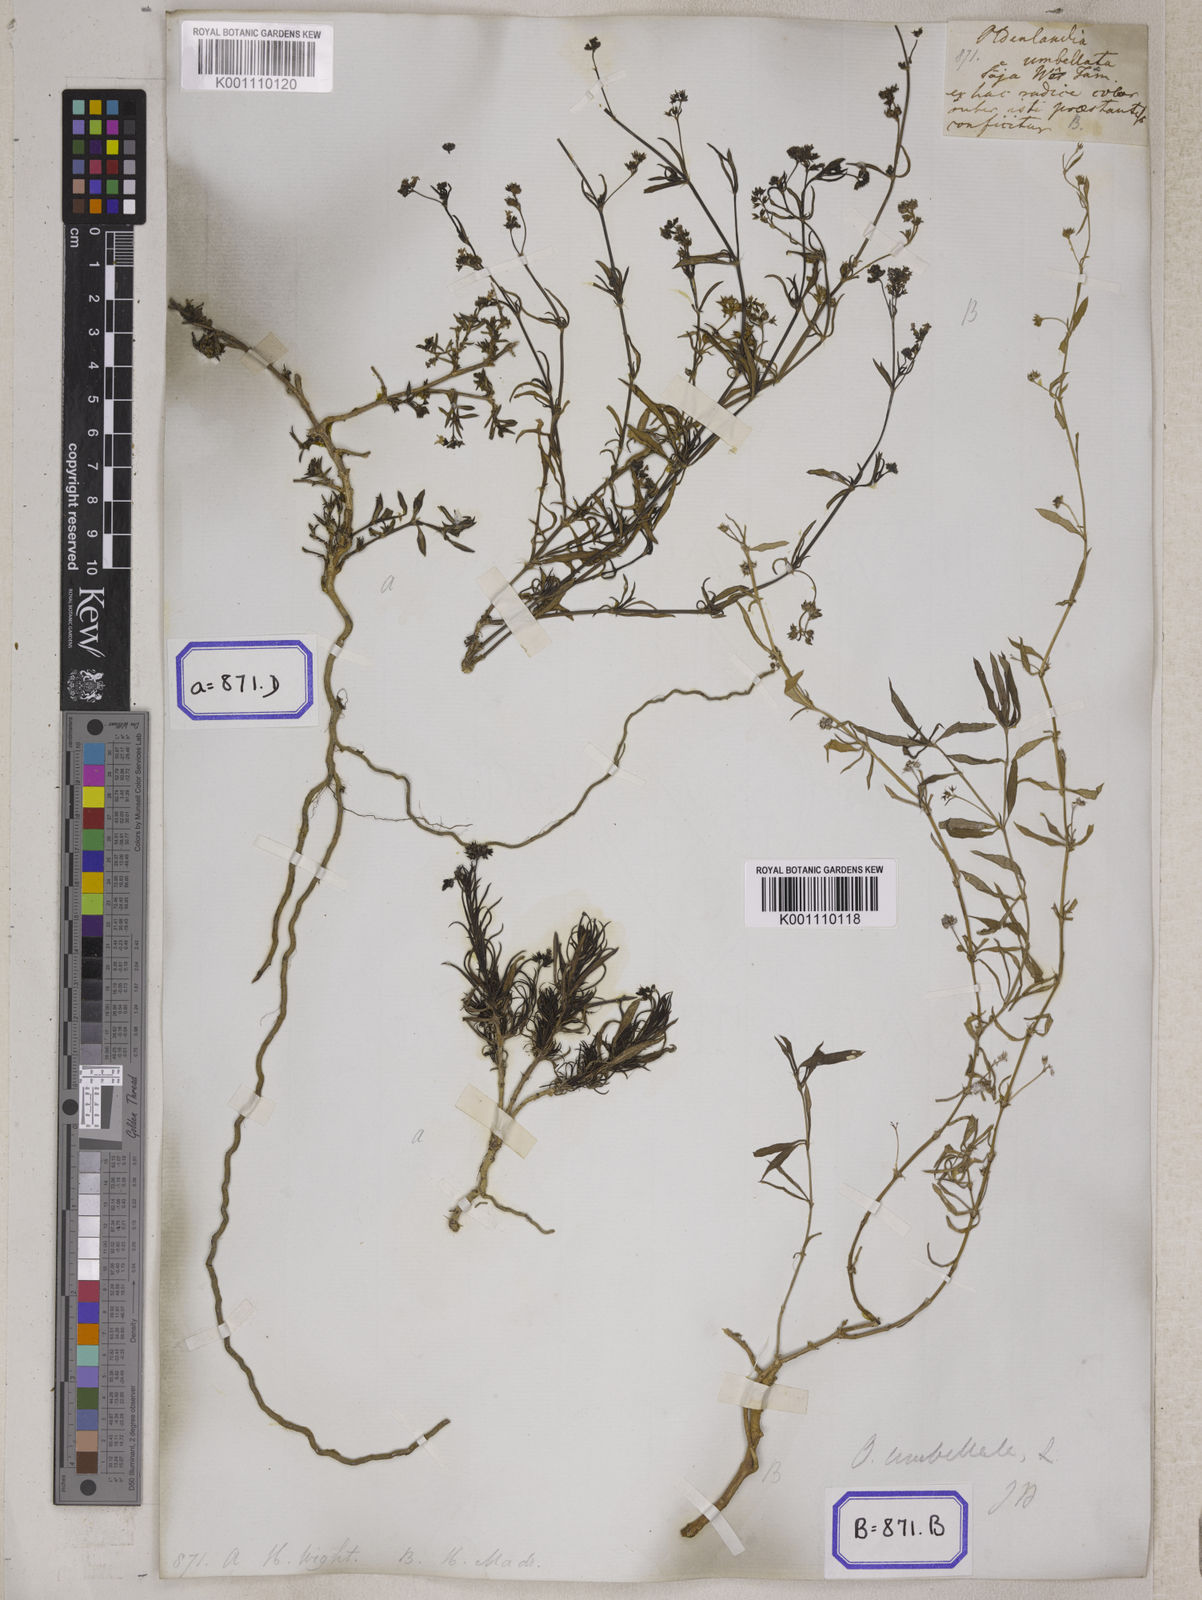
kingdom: Plantae
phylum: Tracheophyta
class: Magnoliopsida
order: Gentianales
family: Rubiaceae
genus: Oldenlandia
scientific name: Oldenlandia umbellata
